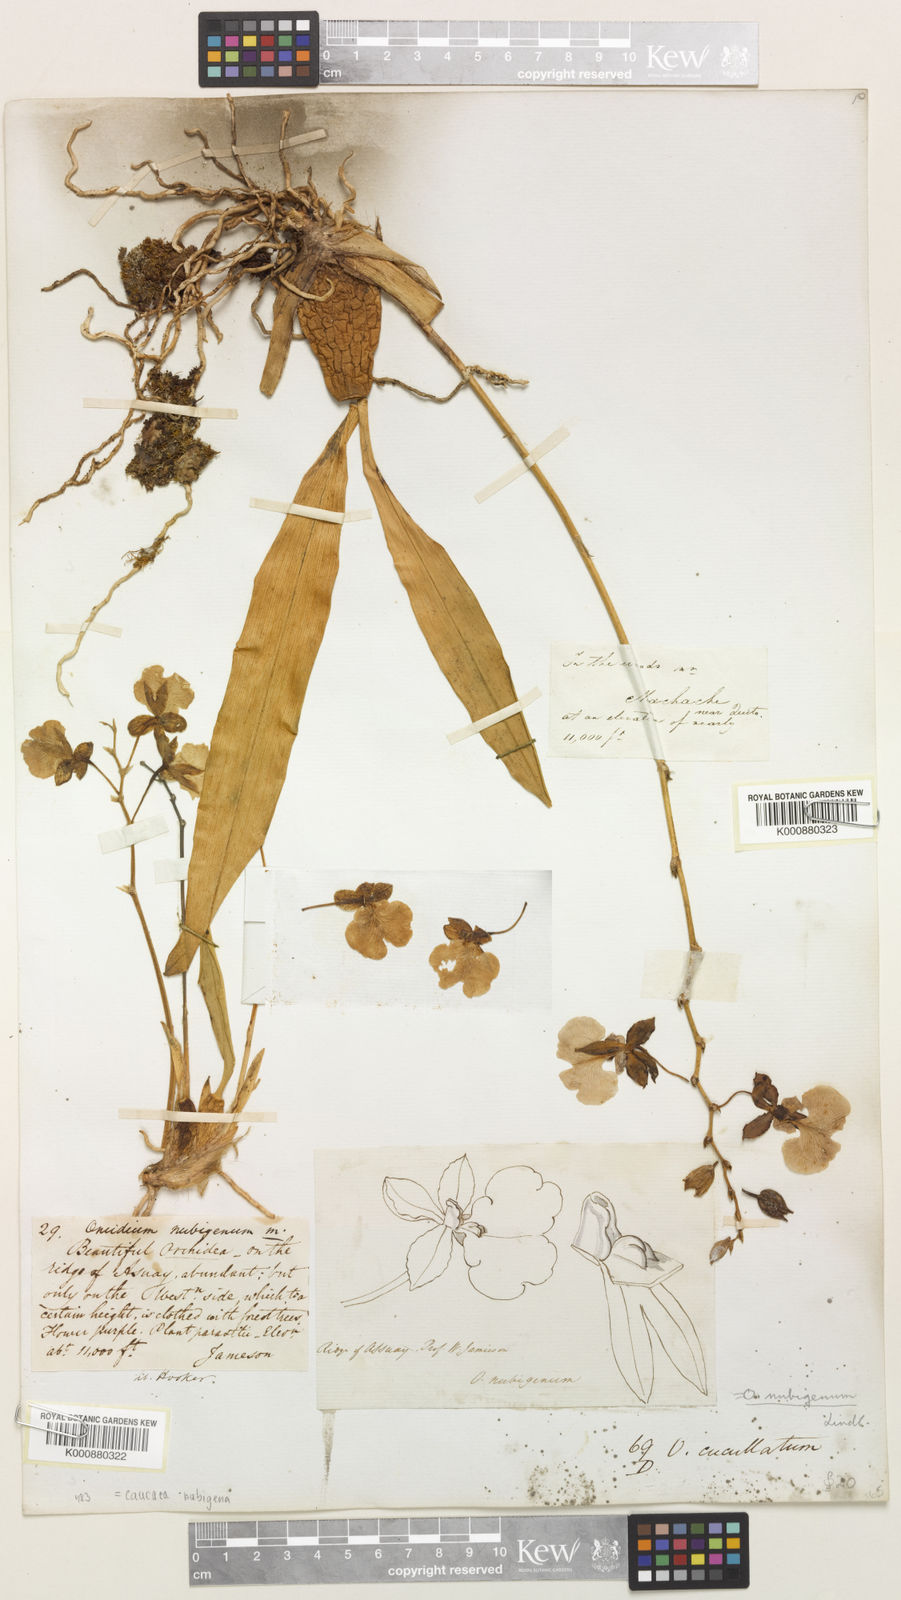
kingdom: Plantae
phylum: Tracheophyta
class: Liliopsida
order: Asparagales
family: Orchidaceae
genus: Caucaea
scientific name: Caucaea nubigena
